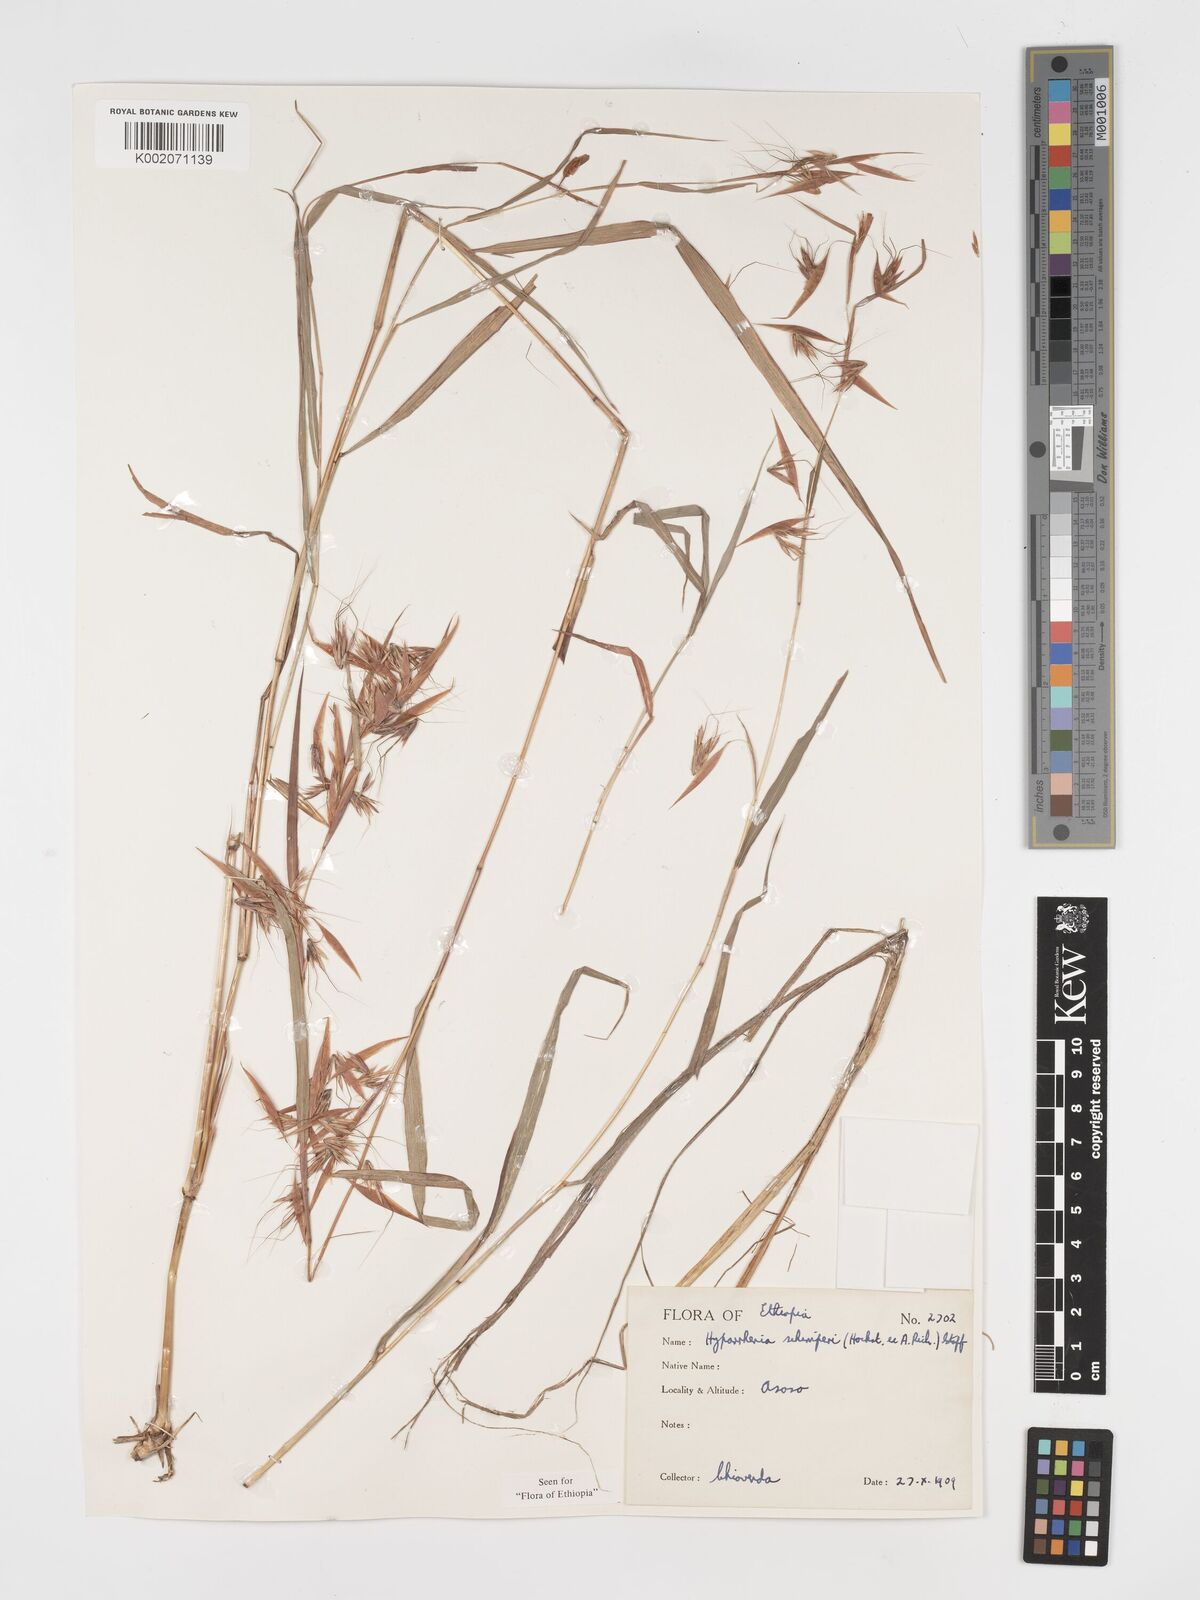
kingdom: Plantae
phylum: Tracheophyta
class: Liliopsida
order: Poales
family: Poaceae
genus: Hyparrhenia
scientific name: Hyparrhenia schimperi
